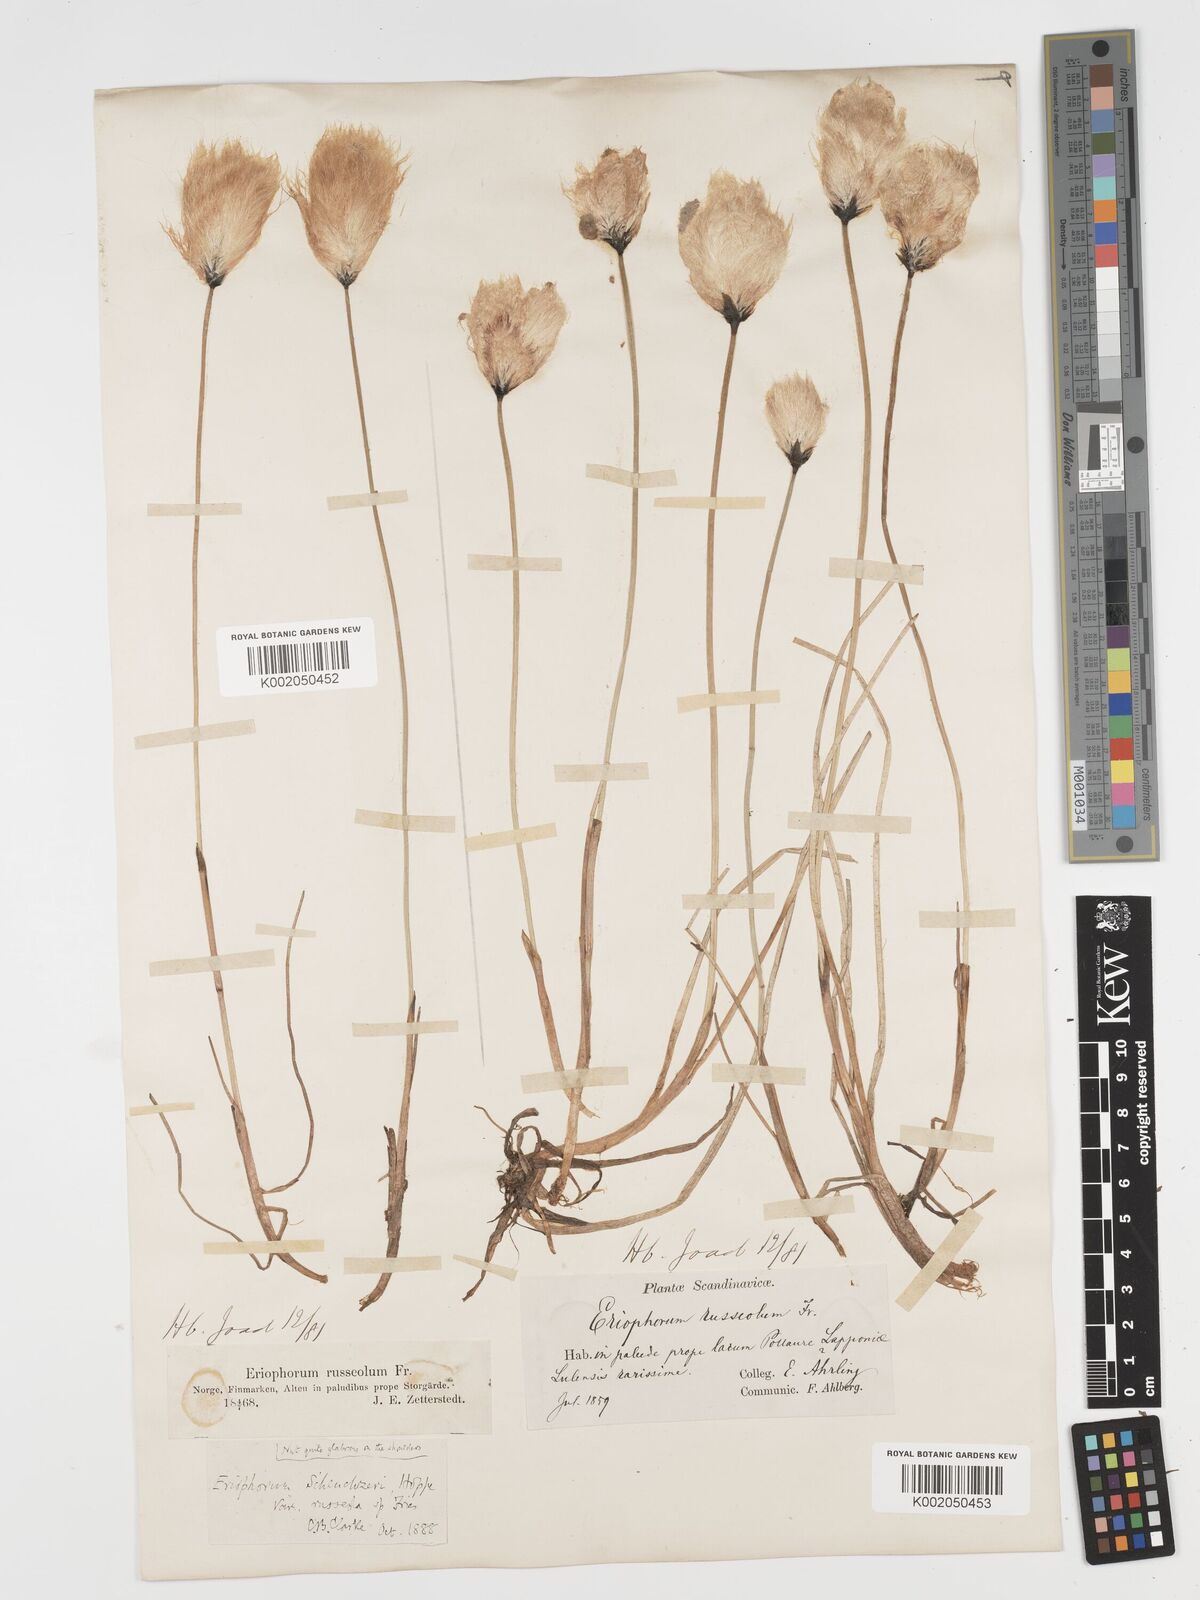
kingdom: Plantae
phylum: Tracheophyta
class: Liliopsida
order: Poales
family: Cyperaceae
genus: Eriophorum
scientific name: Eriophorum scheuchzeri
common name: Scheuchzer's cottongrass
